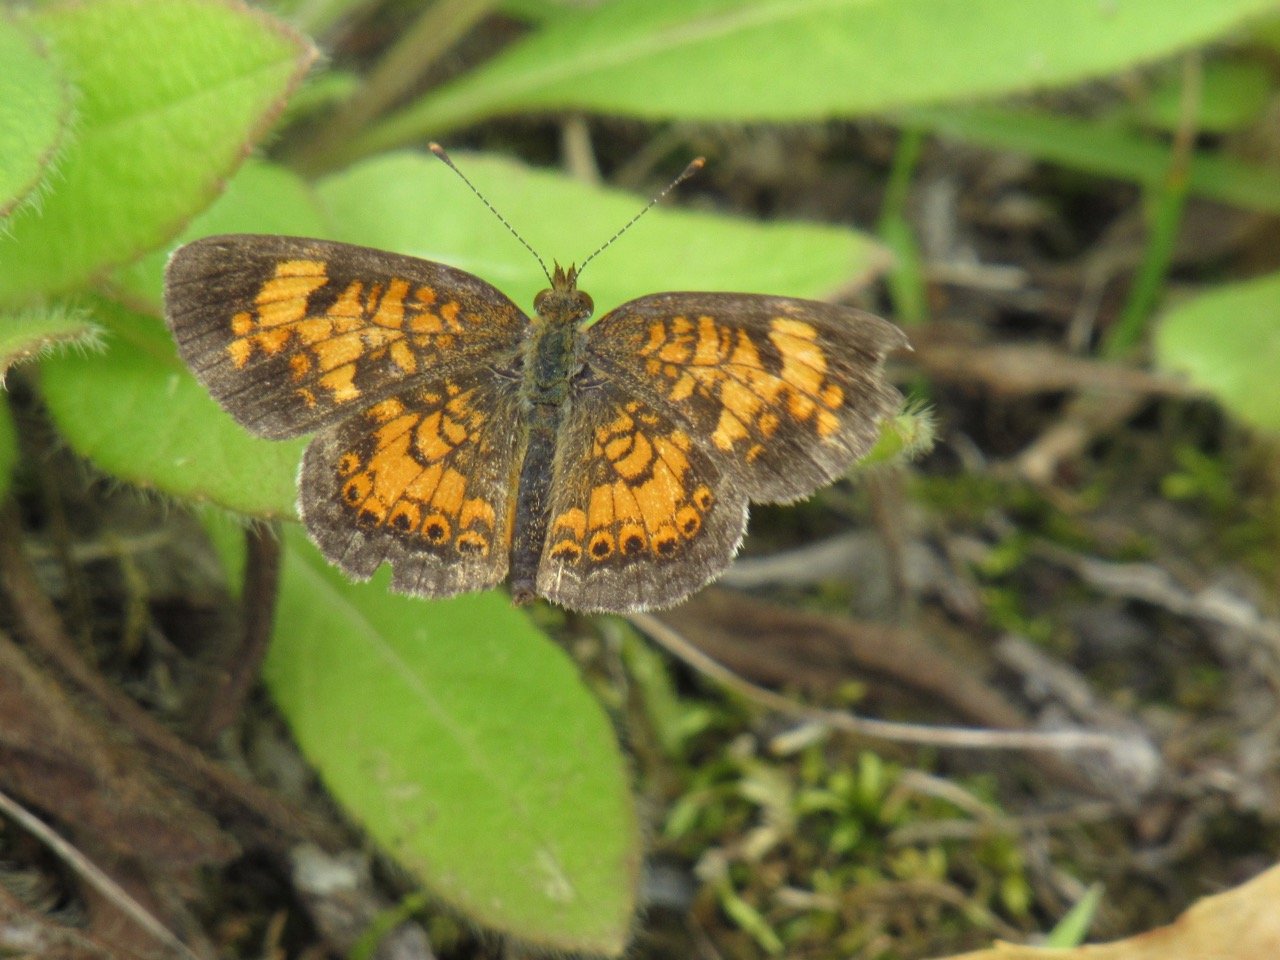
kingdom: Animalia
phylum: Arthropoda
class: Insecta
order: Lepidoptera
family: Nymphalidae
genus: Phyciodes
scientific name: Phyciodes tharos
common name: Pearl Crescent
